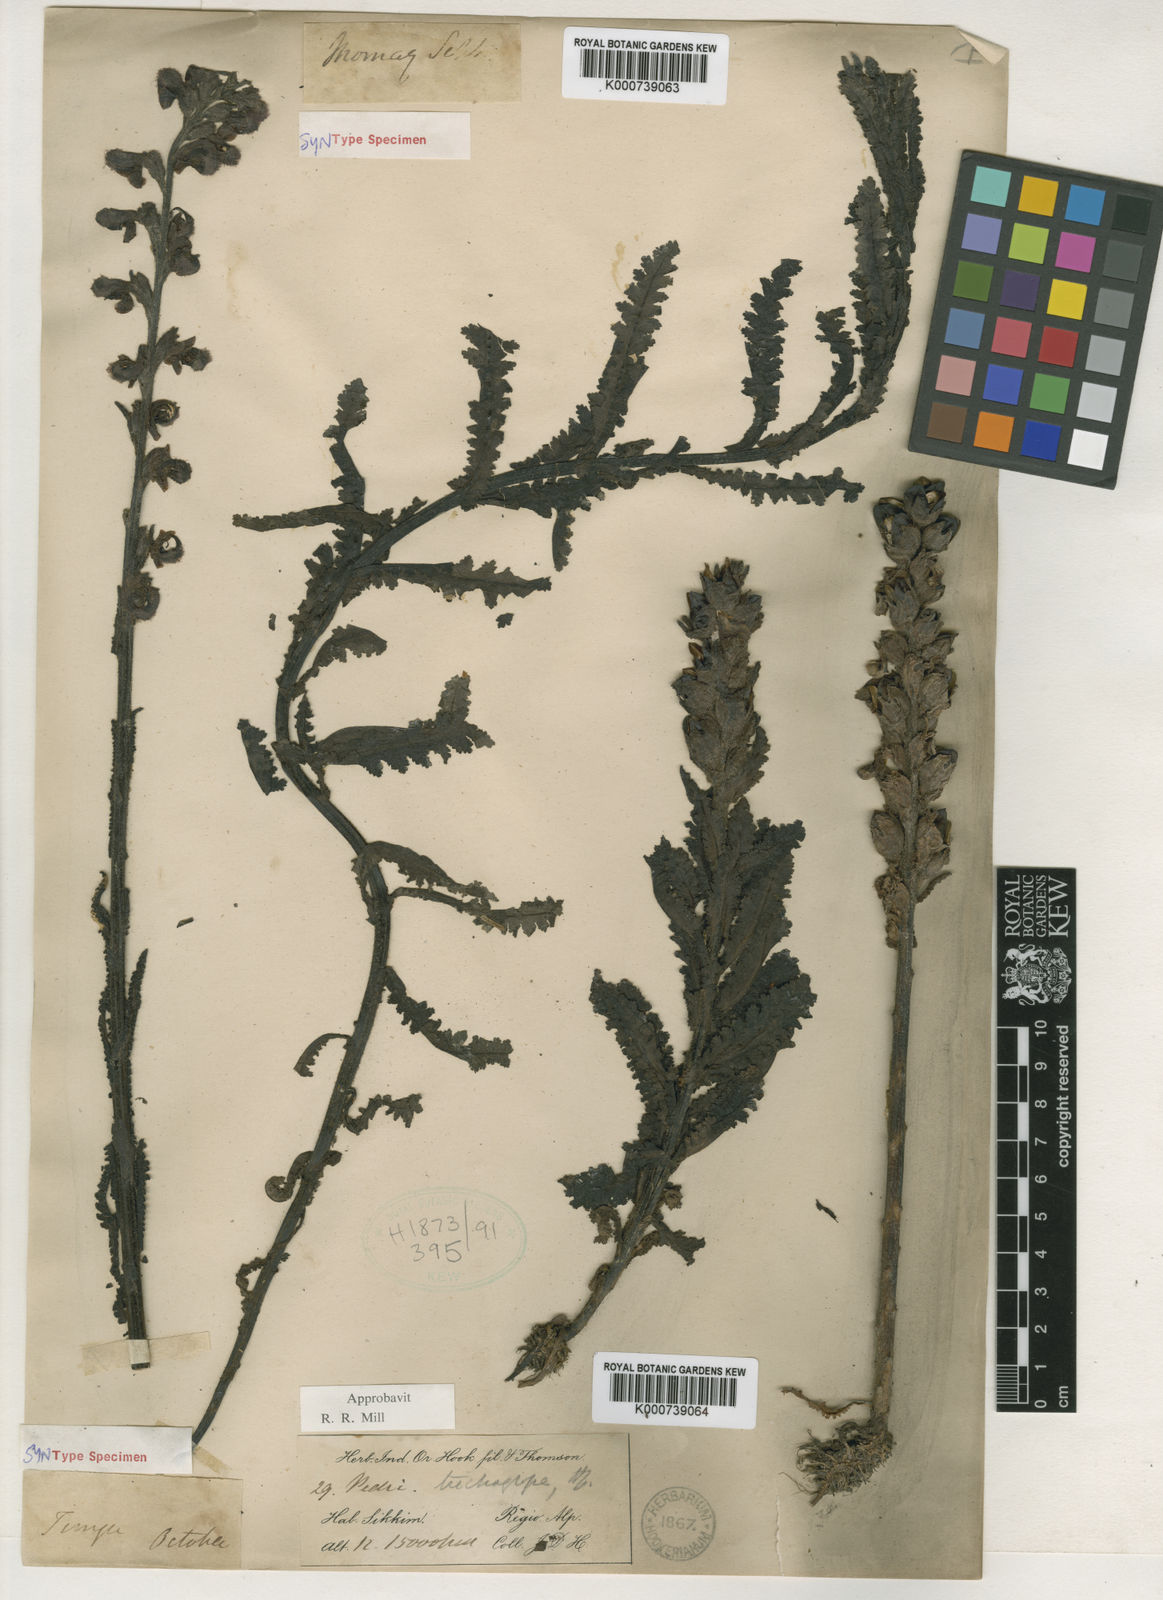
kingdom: Plantae
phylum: Tracheophyta
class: Magnoliopsida
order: Lamiales
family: Orobanchaceae
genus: Pedicularis
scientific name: Pedicularis trichoglossa
